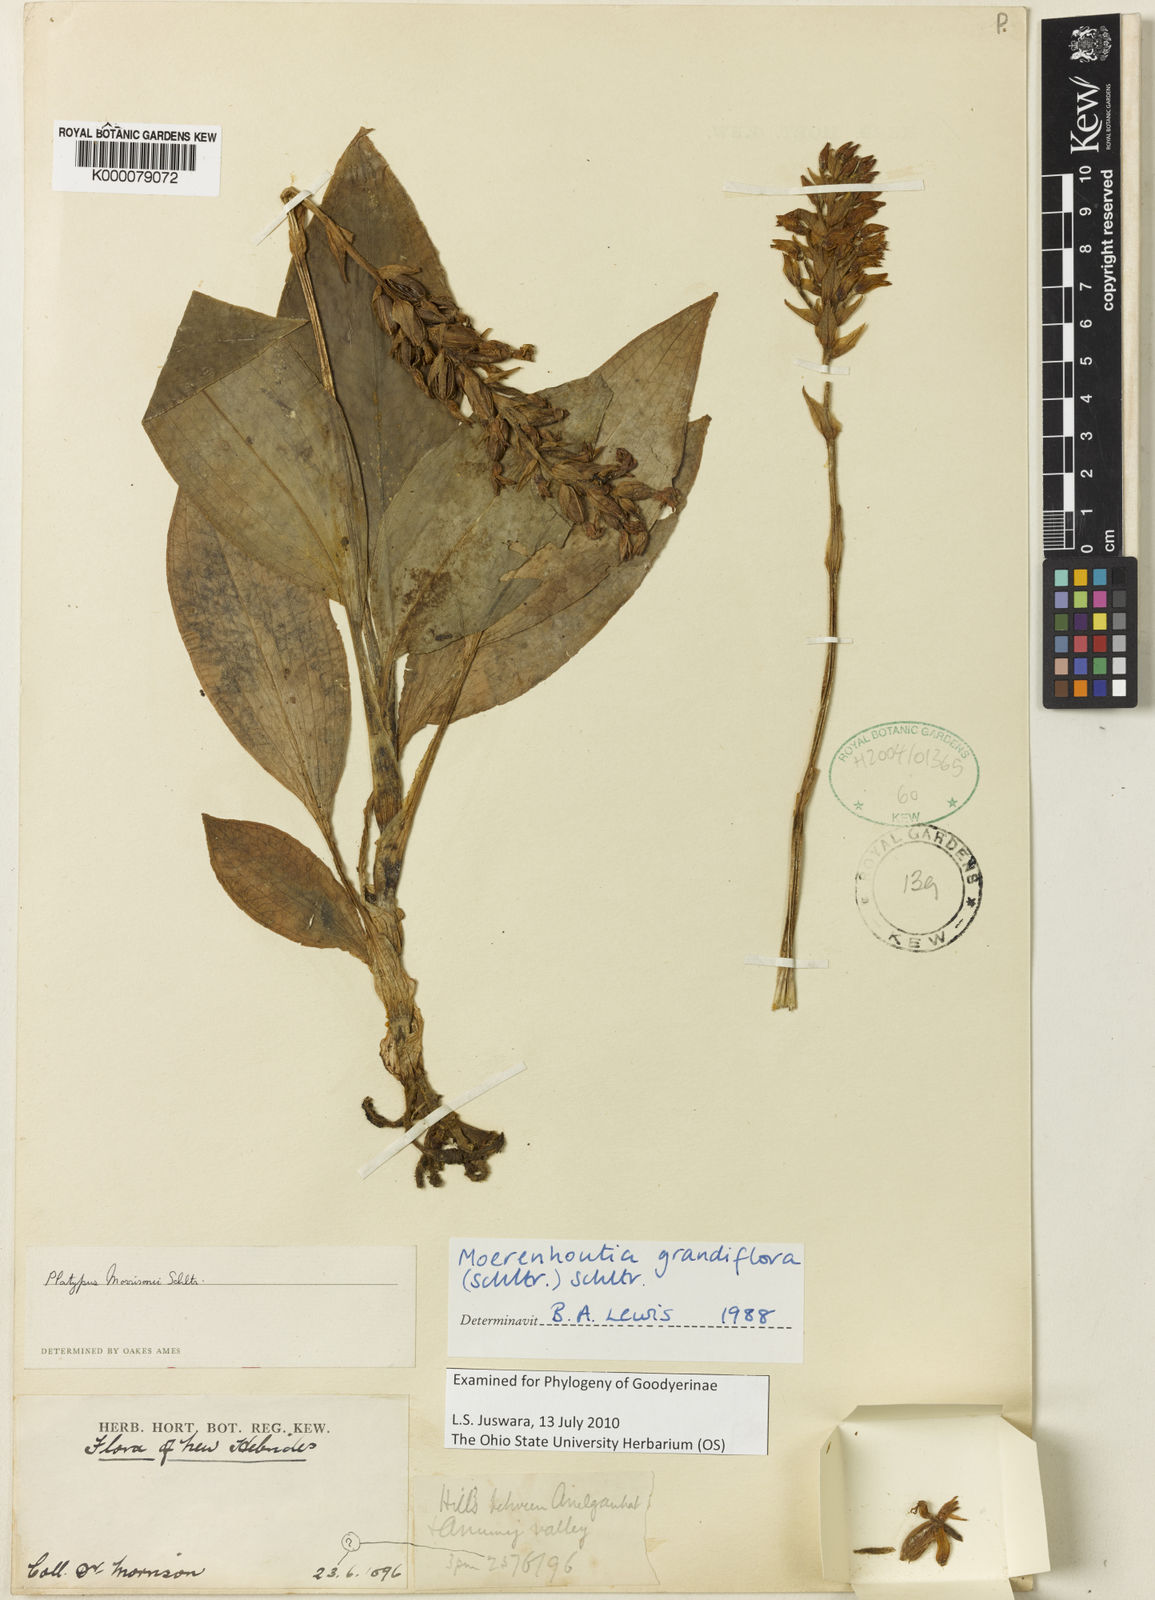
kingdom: Plantae
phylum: Tracheophyta
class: Liliopsida
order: Asparagales
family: Orchidaceae
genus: Platylepis
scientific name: Platylepis grandiflora
